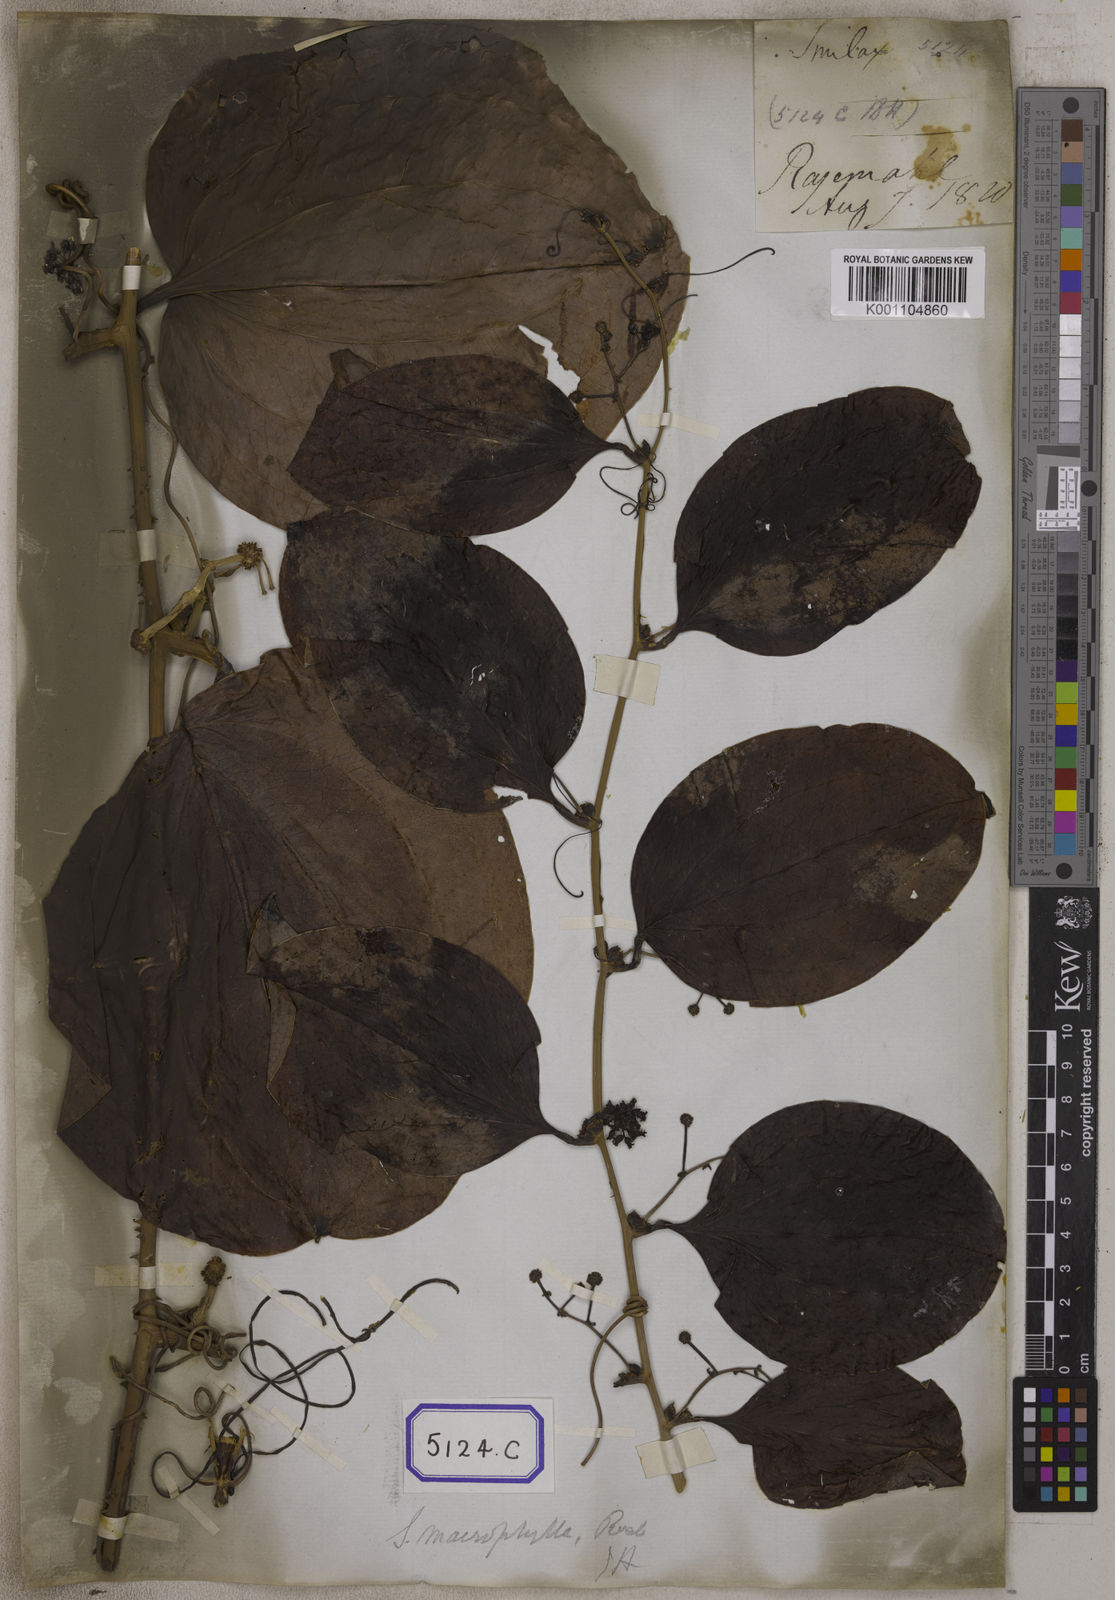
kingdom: Plantae
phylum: Tracheophyta
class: Liliopsida
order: Liliales
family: Smilacaceae
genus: Smilax
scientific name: Smilax prolifera
